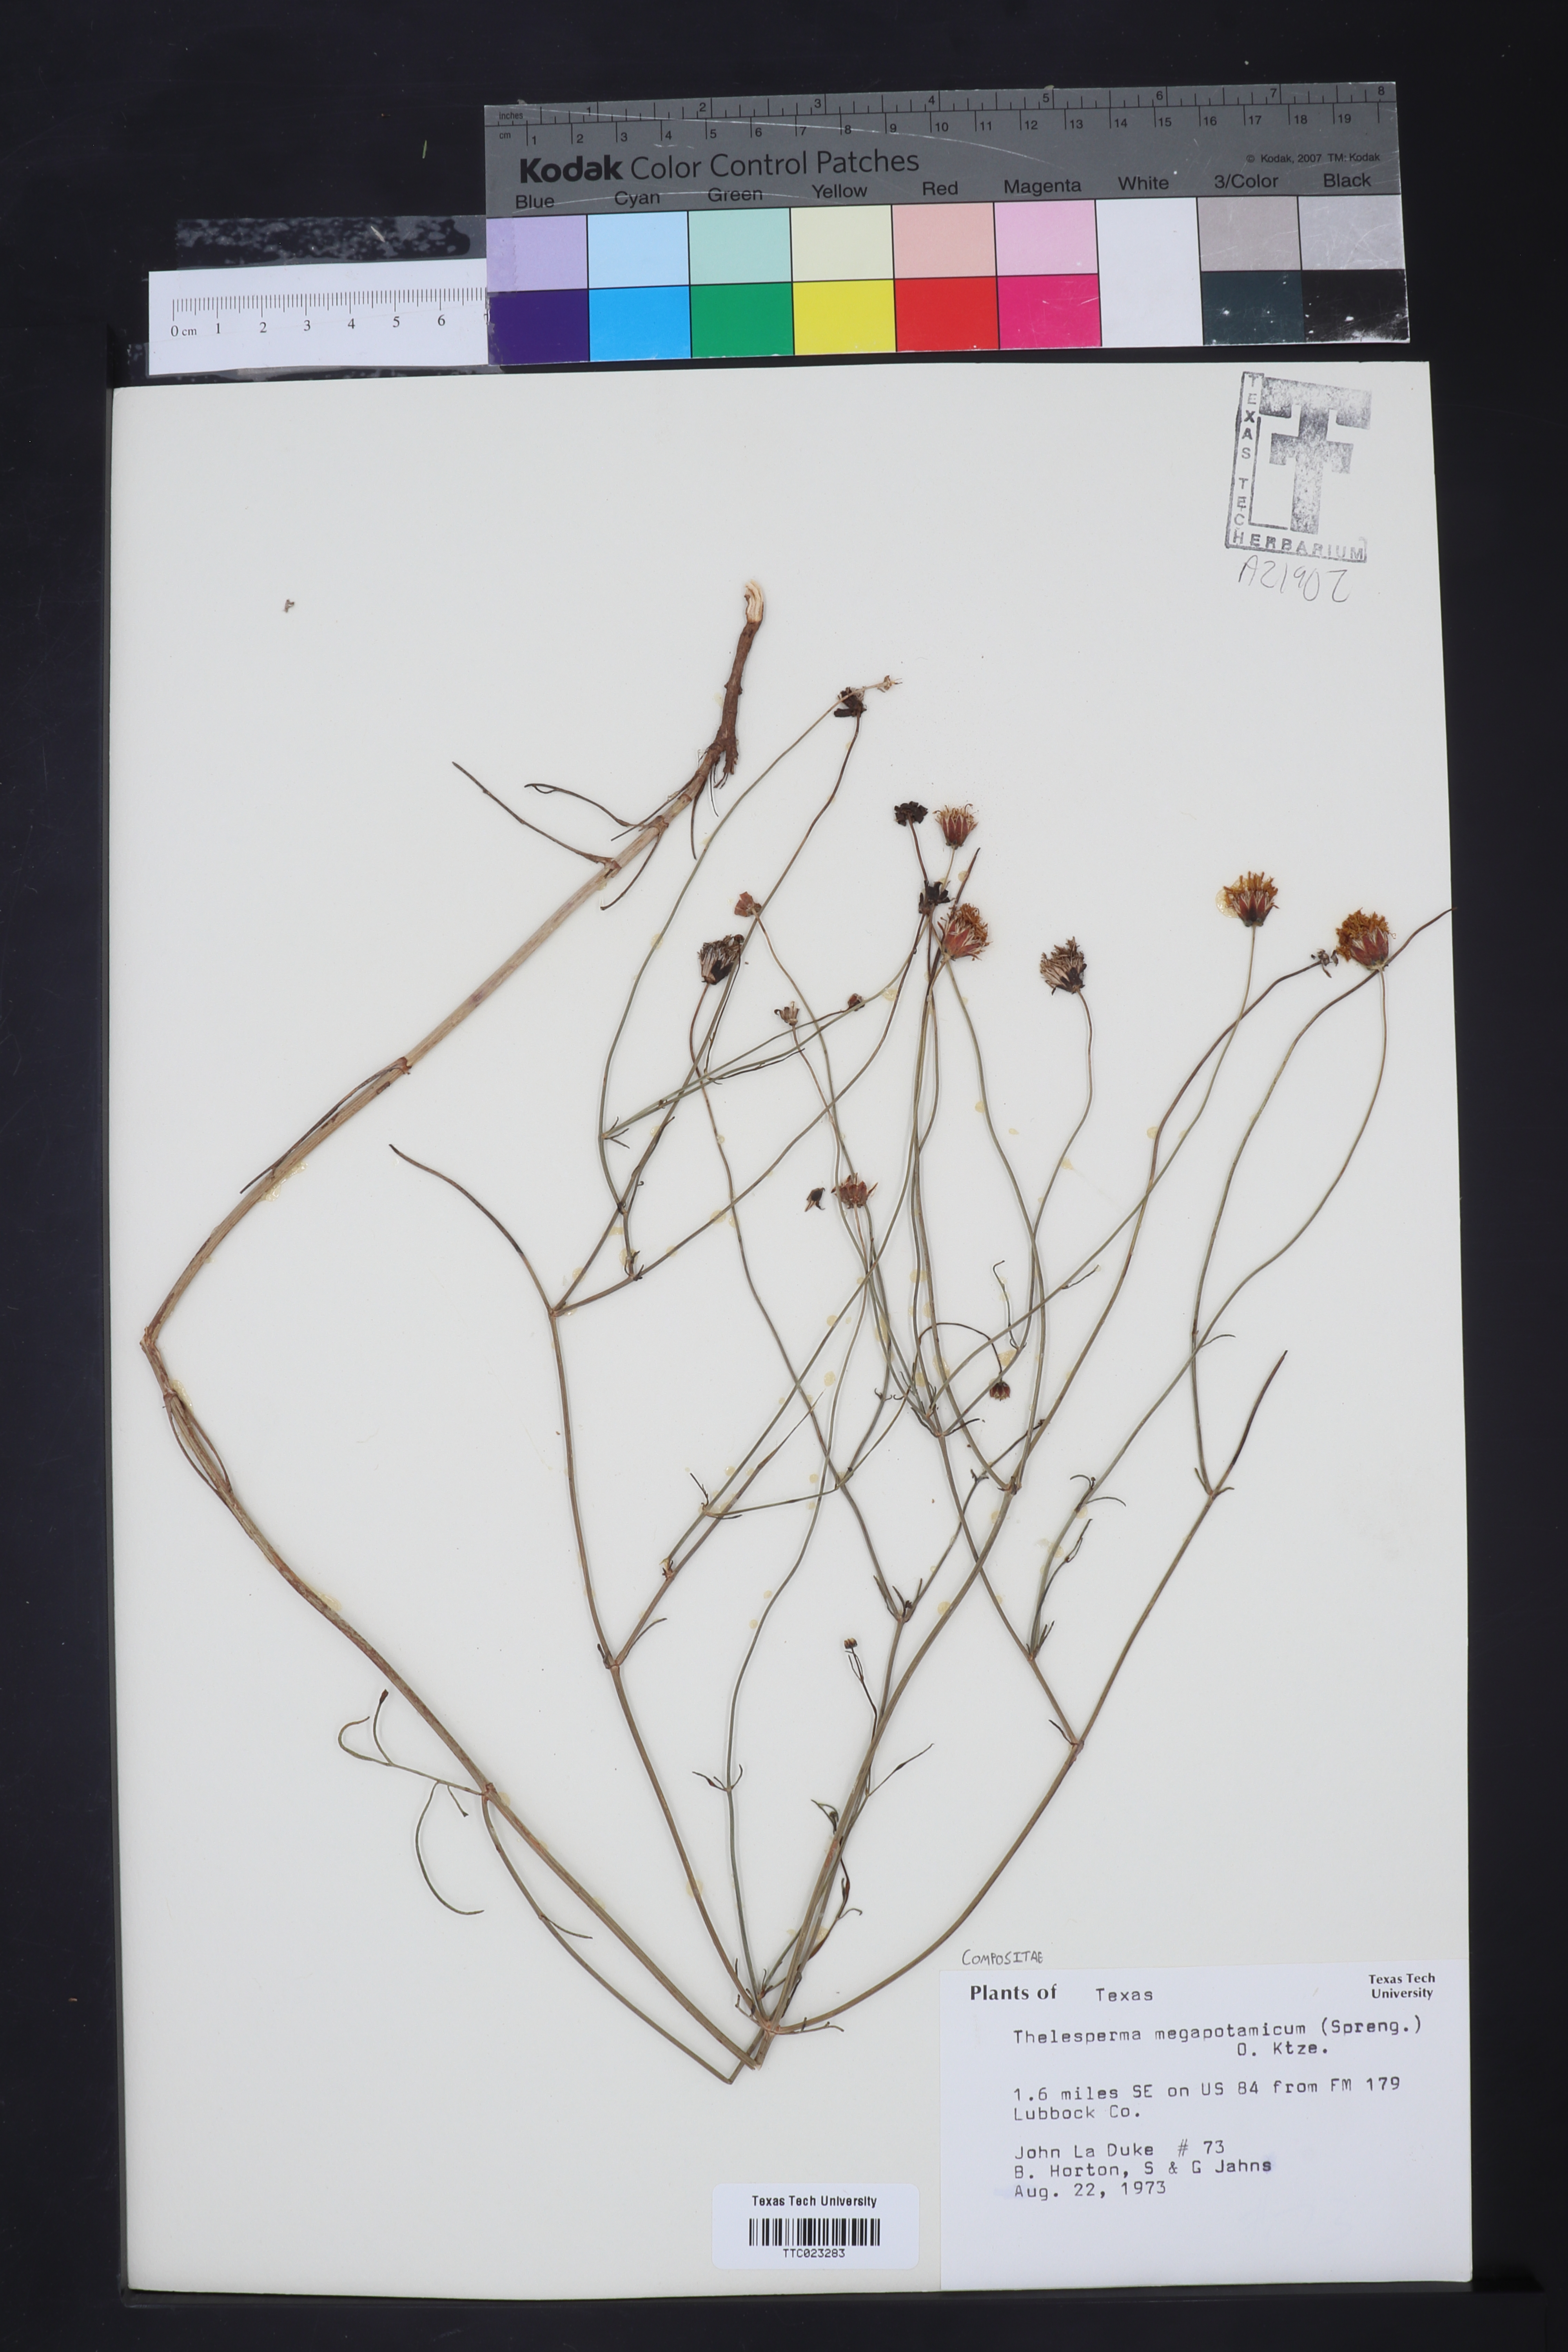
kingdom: Plantae
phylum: Tracheophyta
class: Magnoliopsida
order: Asterales
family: Asteraceae
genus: Thelesperma
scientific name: Thelesperma megapotamicum
